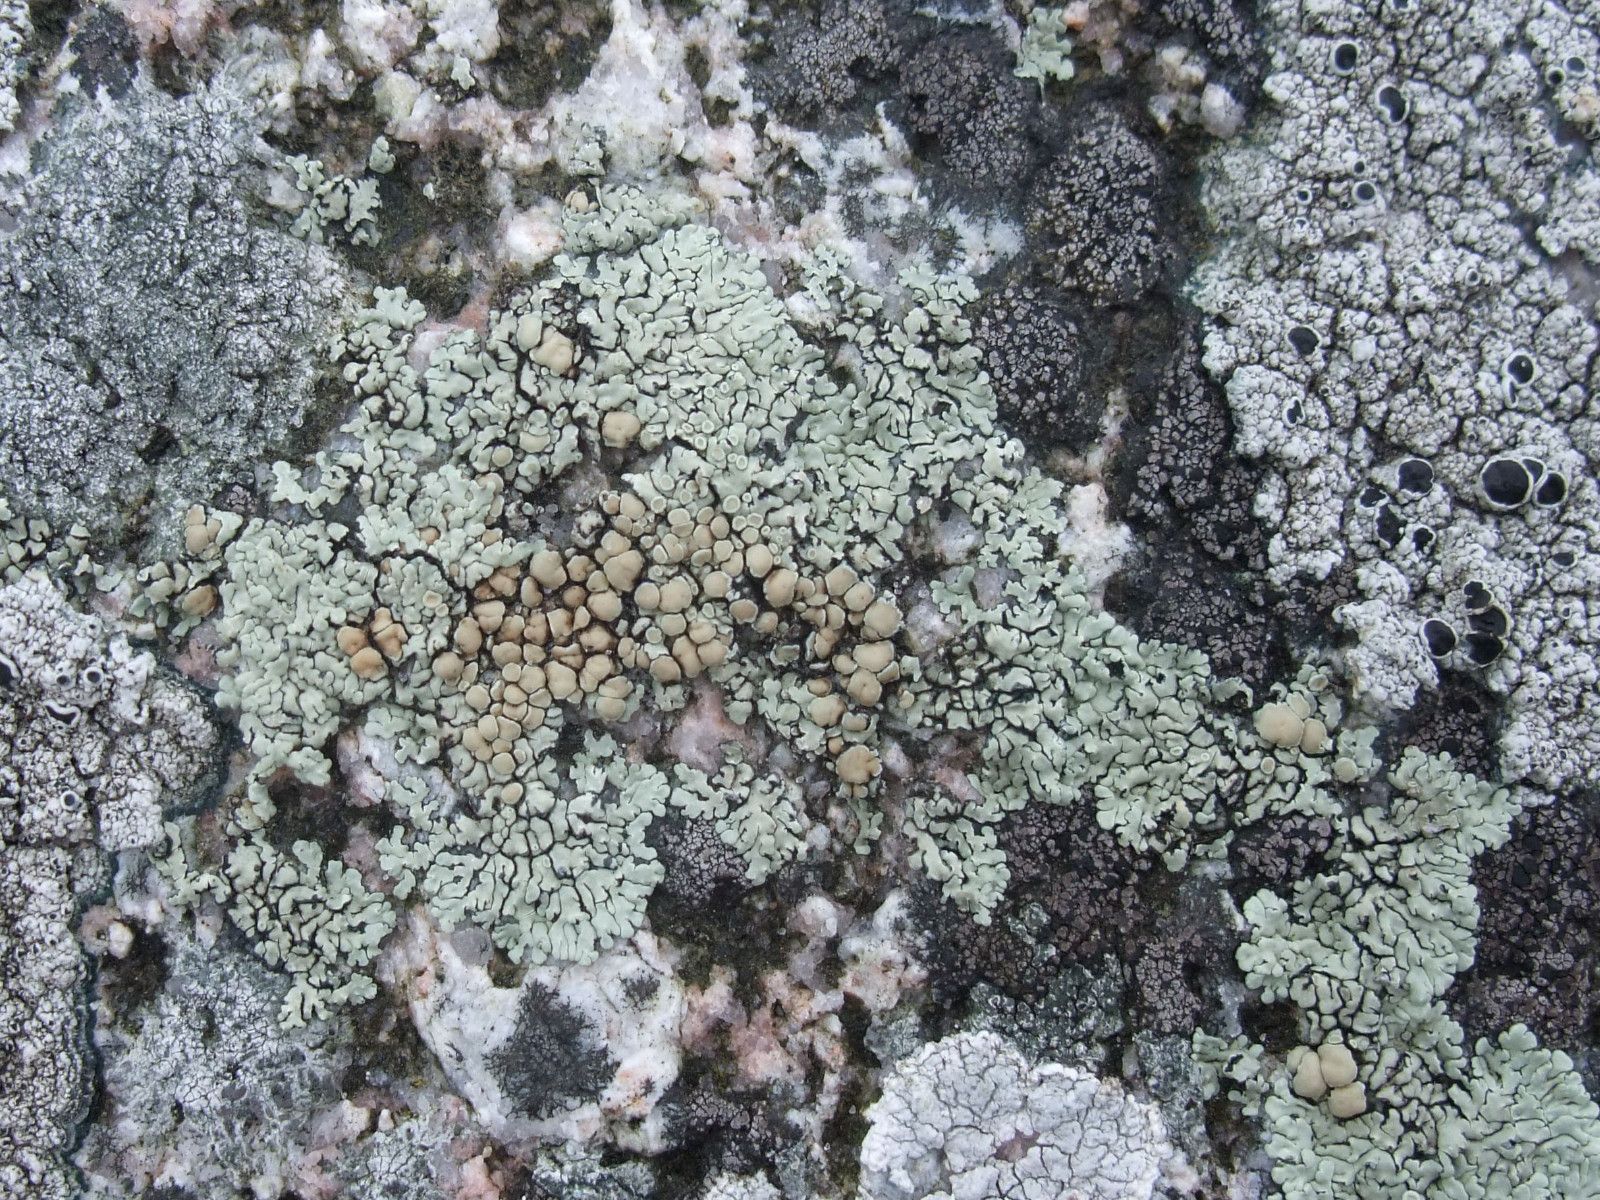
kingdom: Fungi
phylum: Ascomycota
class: Lecanoromycetes
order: Lecanorales
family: Lecanoraceae
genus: Protoparmeliopsis
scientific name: Protoparmeliopsis muralis
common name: randfliget kantskivelav
